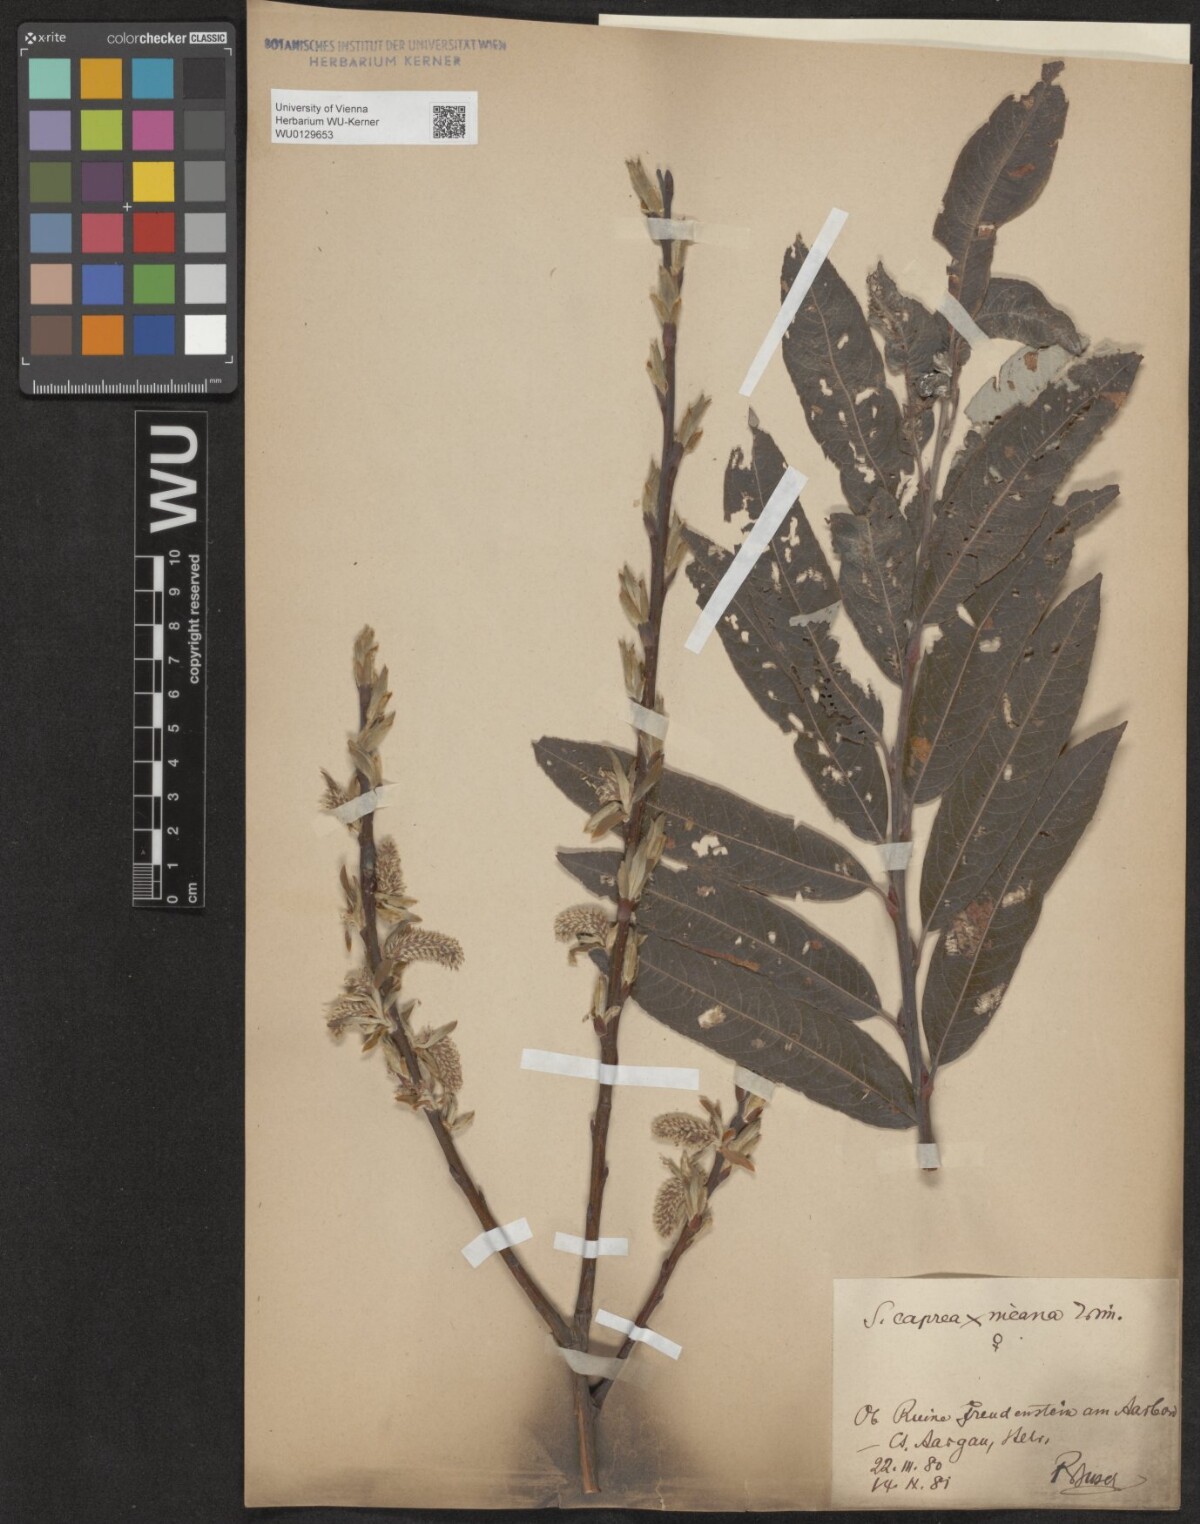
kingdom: Plantae
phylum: Tracheophyta
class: Magnoliopsida
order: Malpighiales
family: Salicaceae
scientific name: Salicaceae
